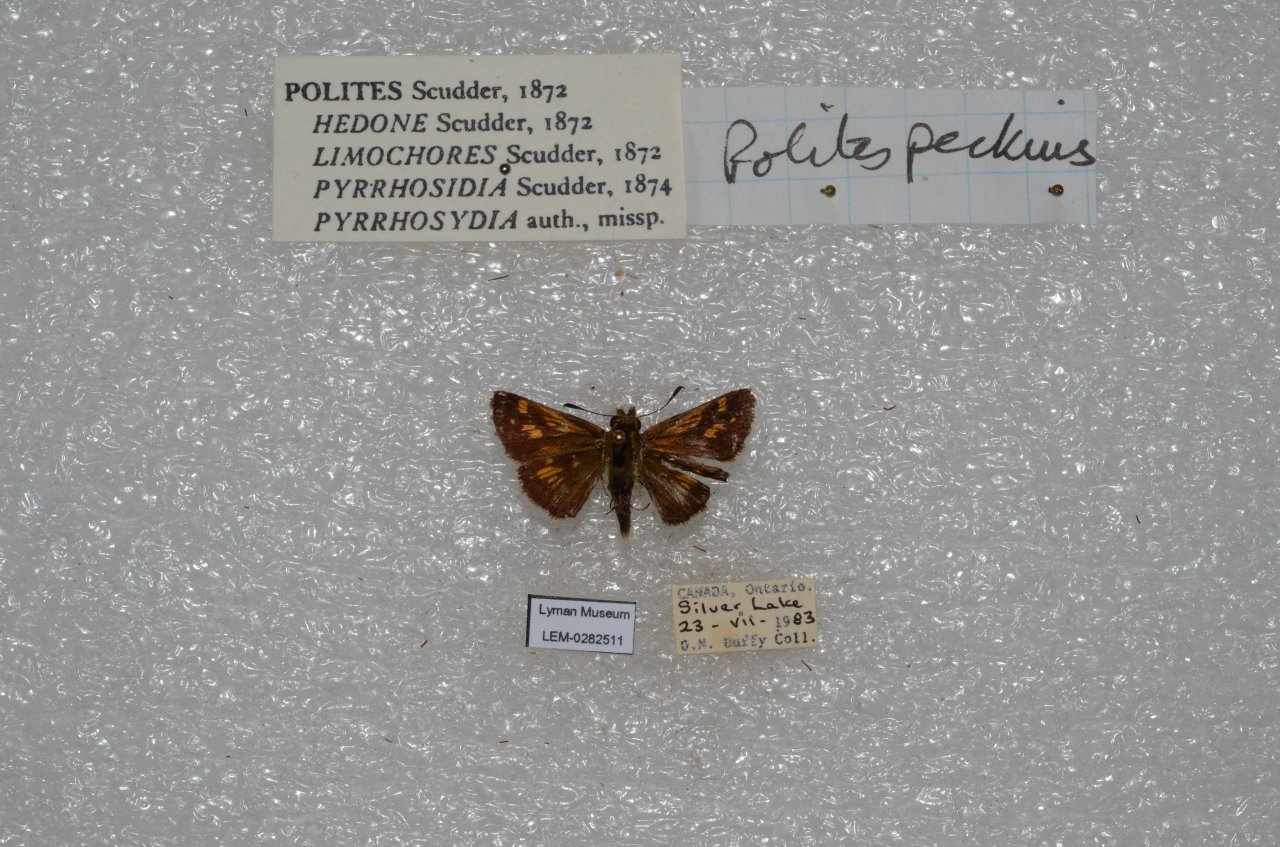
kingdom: Animalia
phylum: Arthropoda
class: Insecta
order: Lepidoptera
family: Hesperiidae
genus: Polites
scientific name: Polites coras
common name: Peck's Skipper
